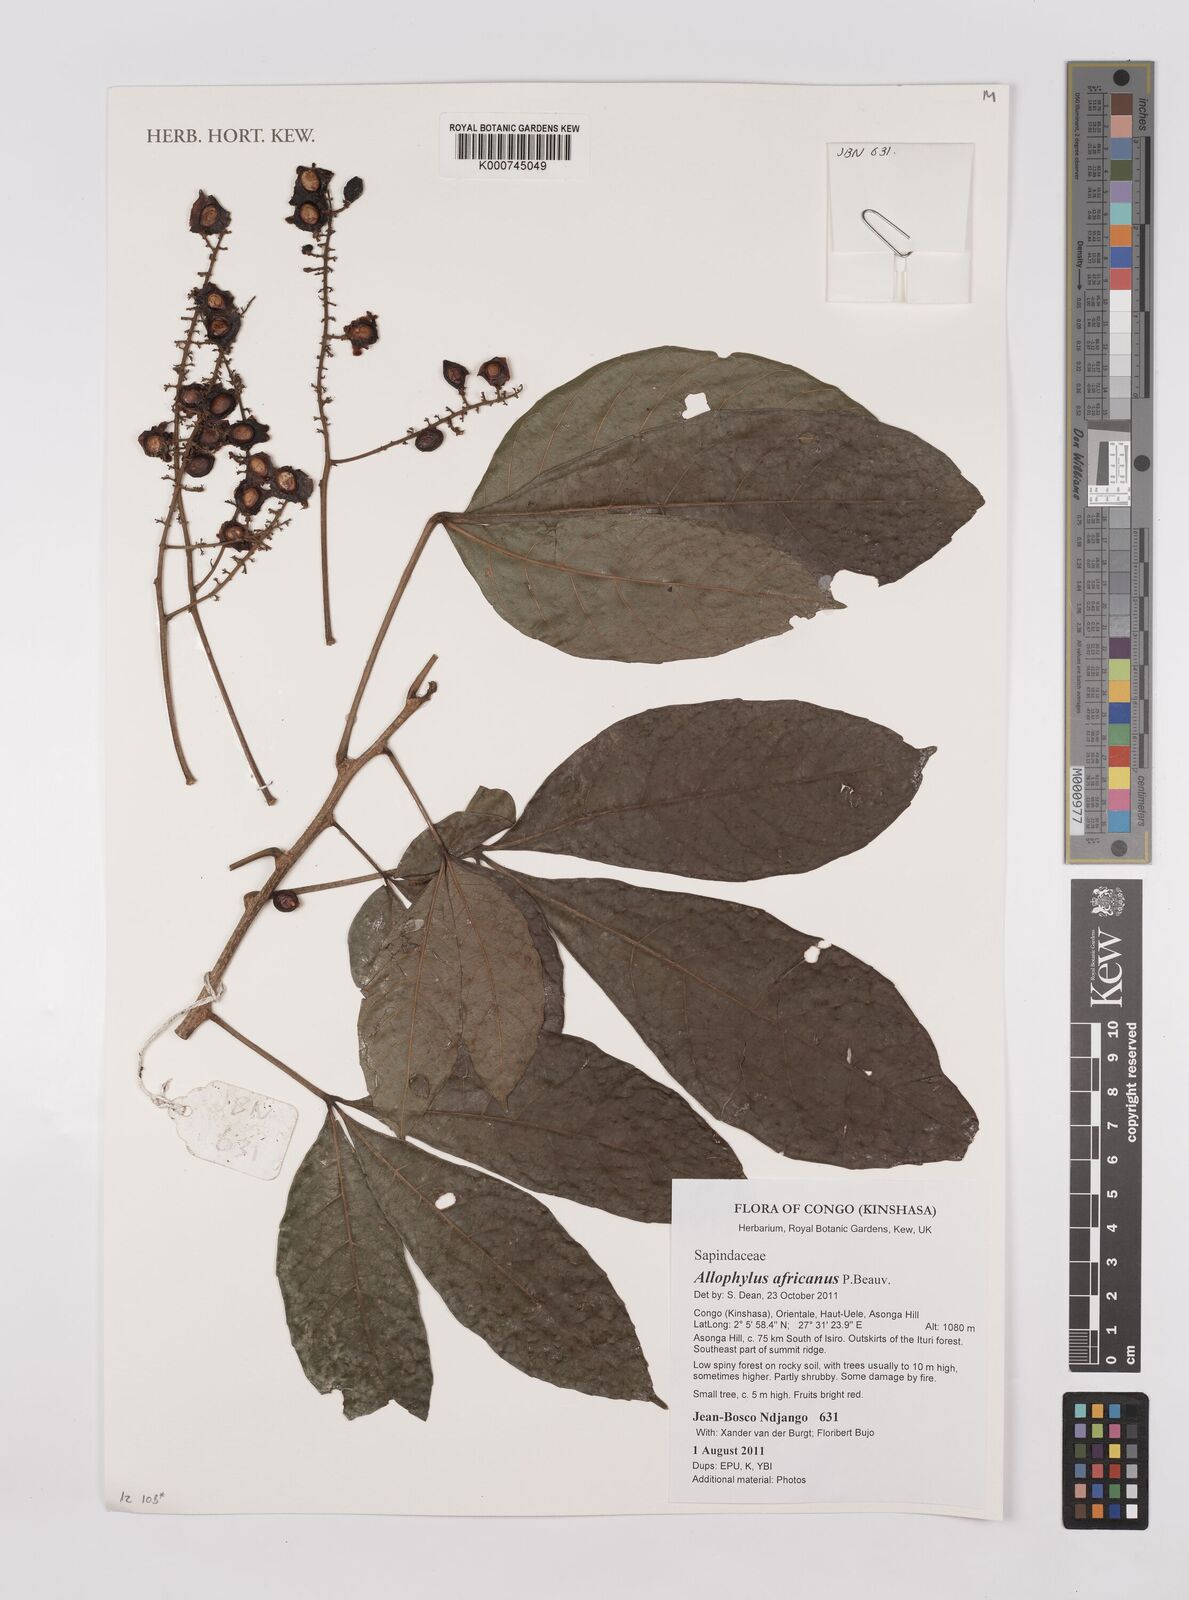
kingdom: Plantae
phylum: Tracheophyta
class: Magnoliopsida
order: Sapindales
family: Sapindaceae
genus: Allophylus
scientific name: Allophylus africanus
